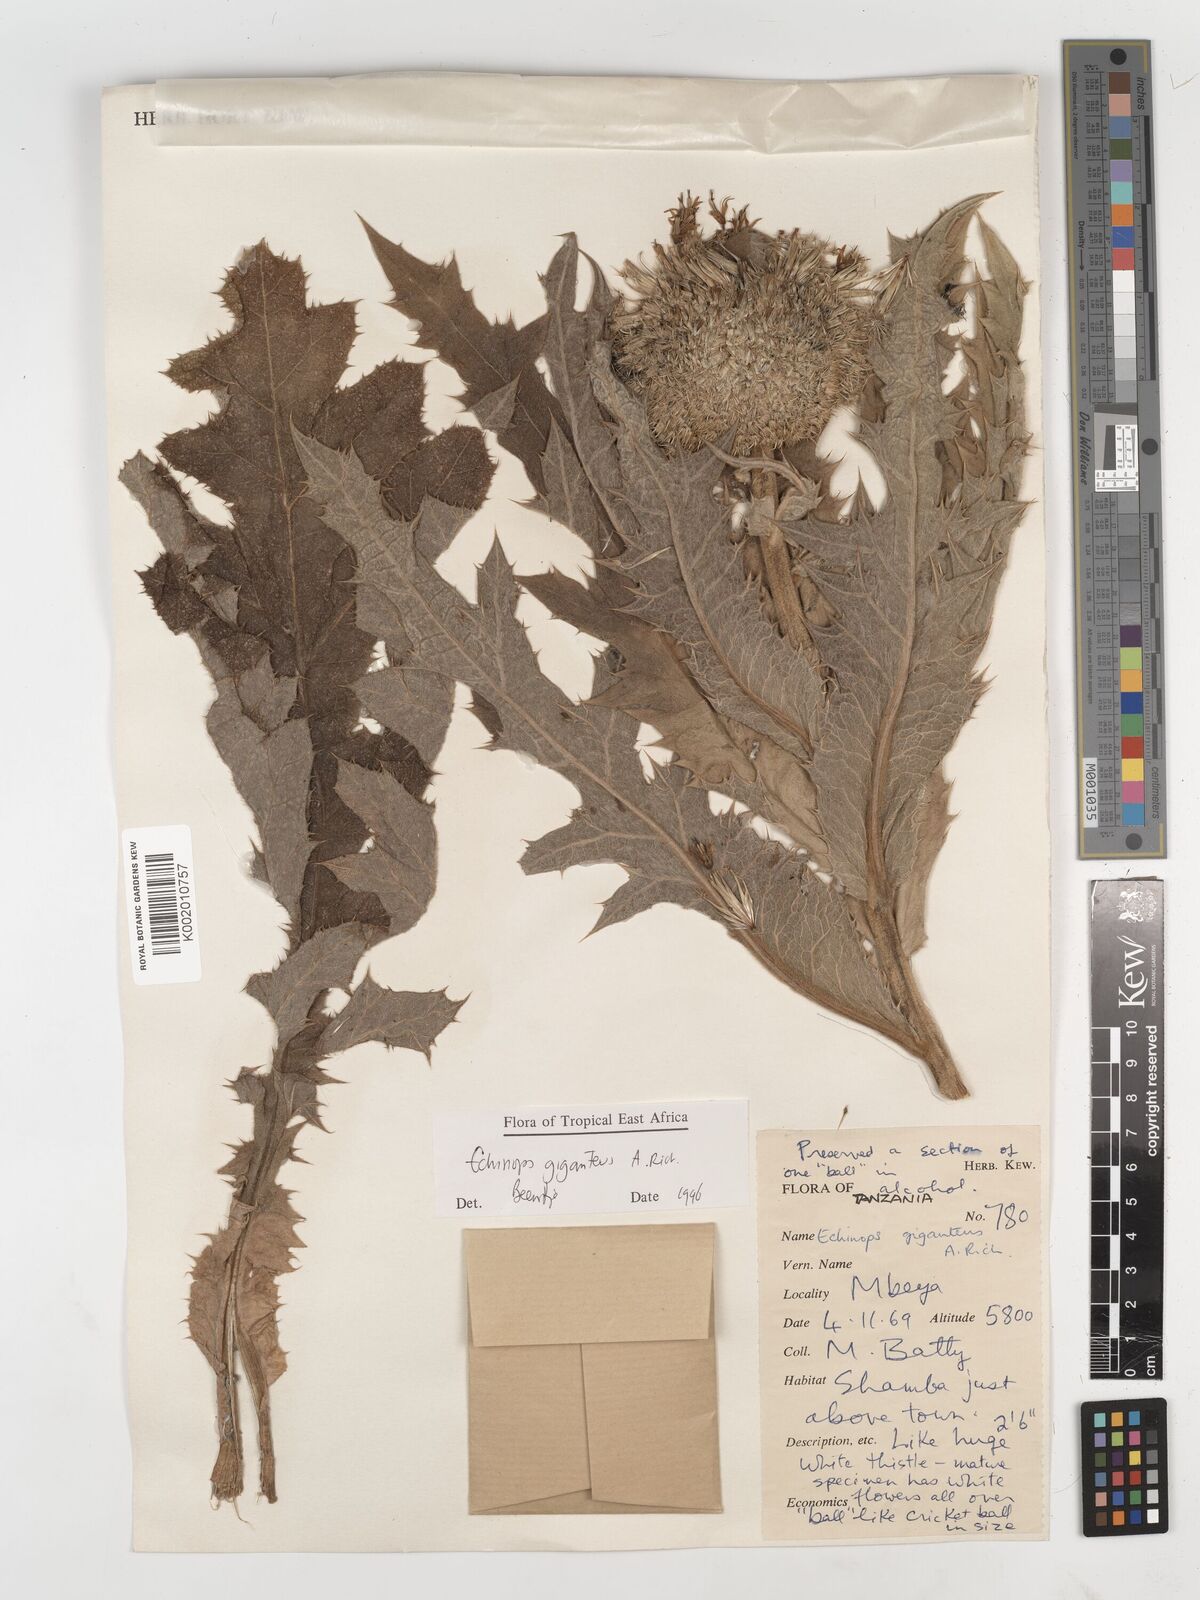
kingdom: Plantae
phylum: Tracheophyta
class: Magnoliopsida
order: Asterales
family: Asteraceae
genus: Echinops
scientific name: Echinops giganteus
